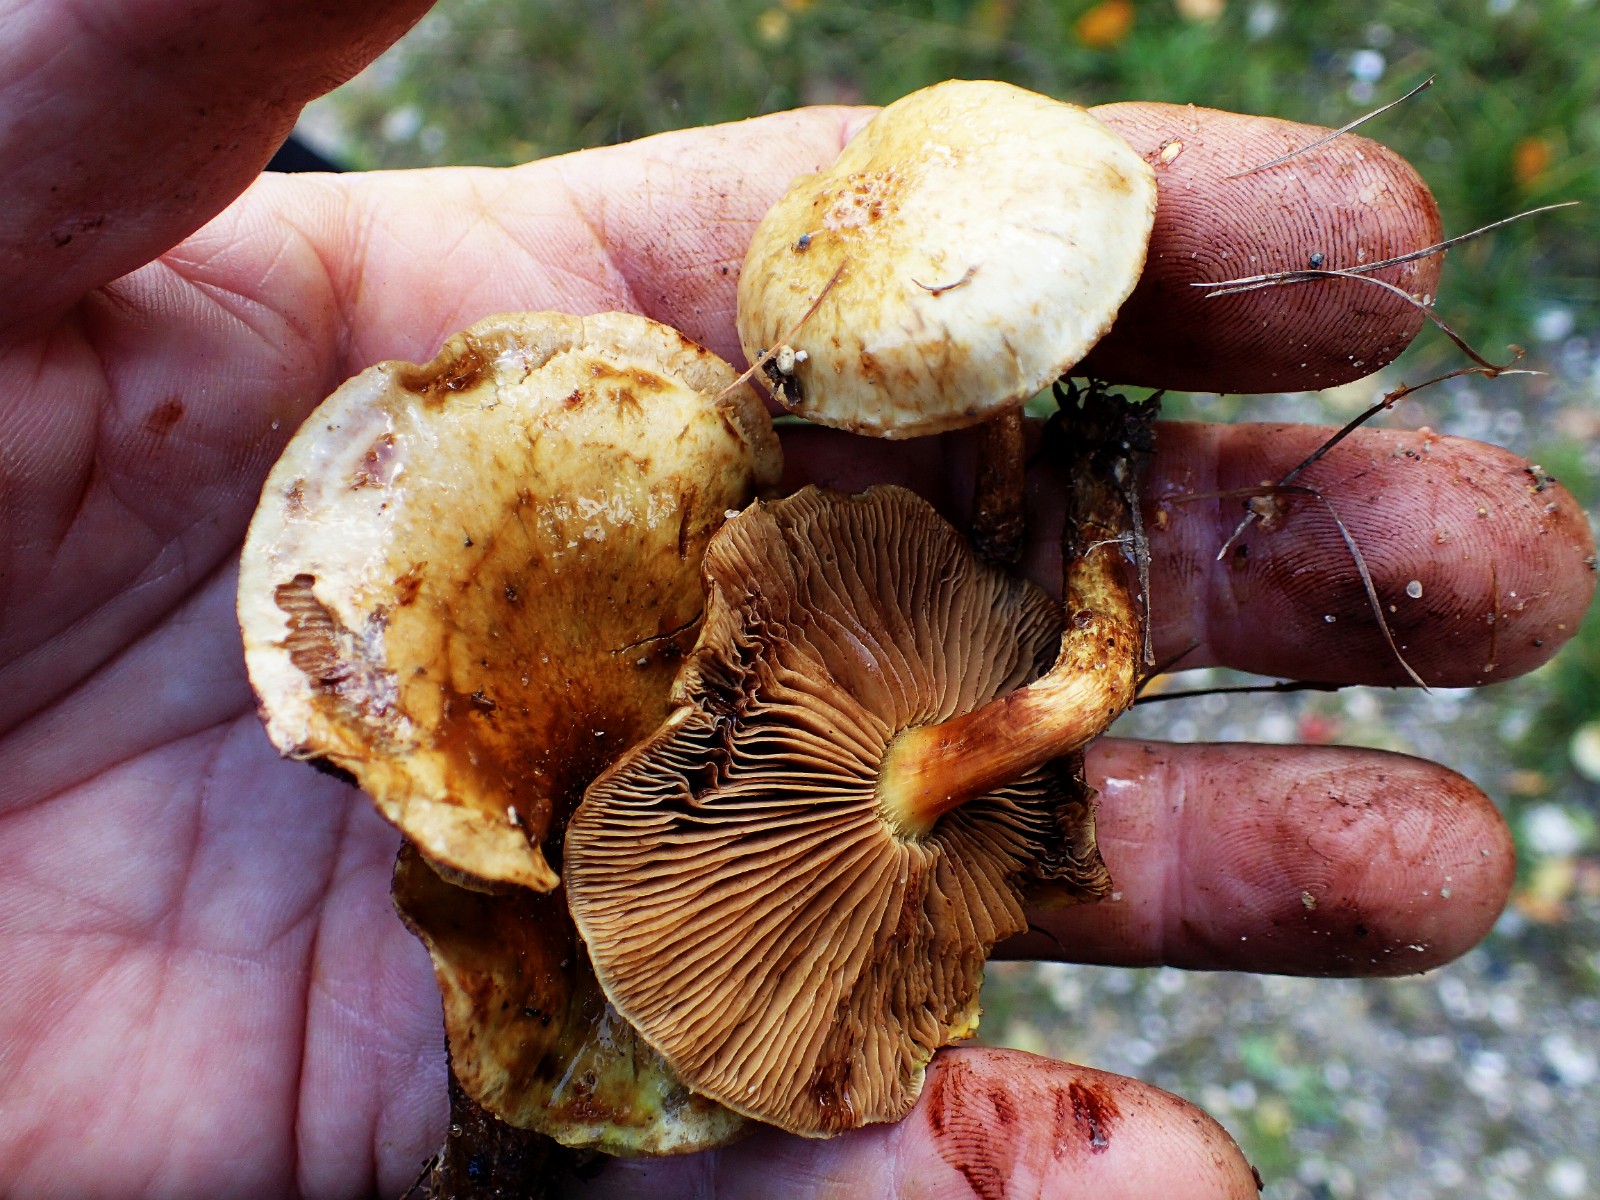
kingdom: Fungi
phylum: Basidiomycota
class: Agaricomycetes
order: Agaricales
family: Strophariaceae
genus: Pholiota
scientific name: Pholiota
